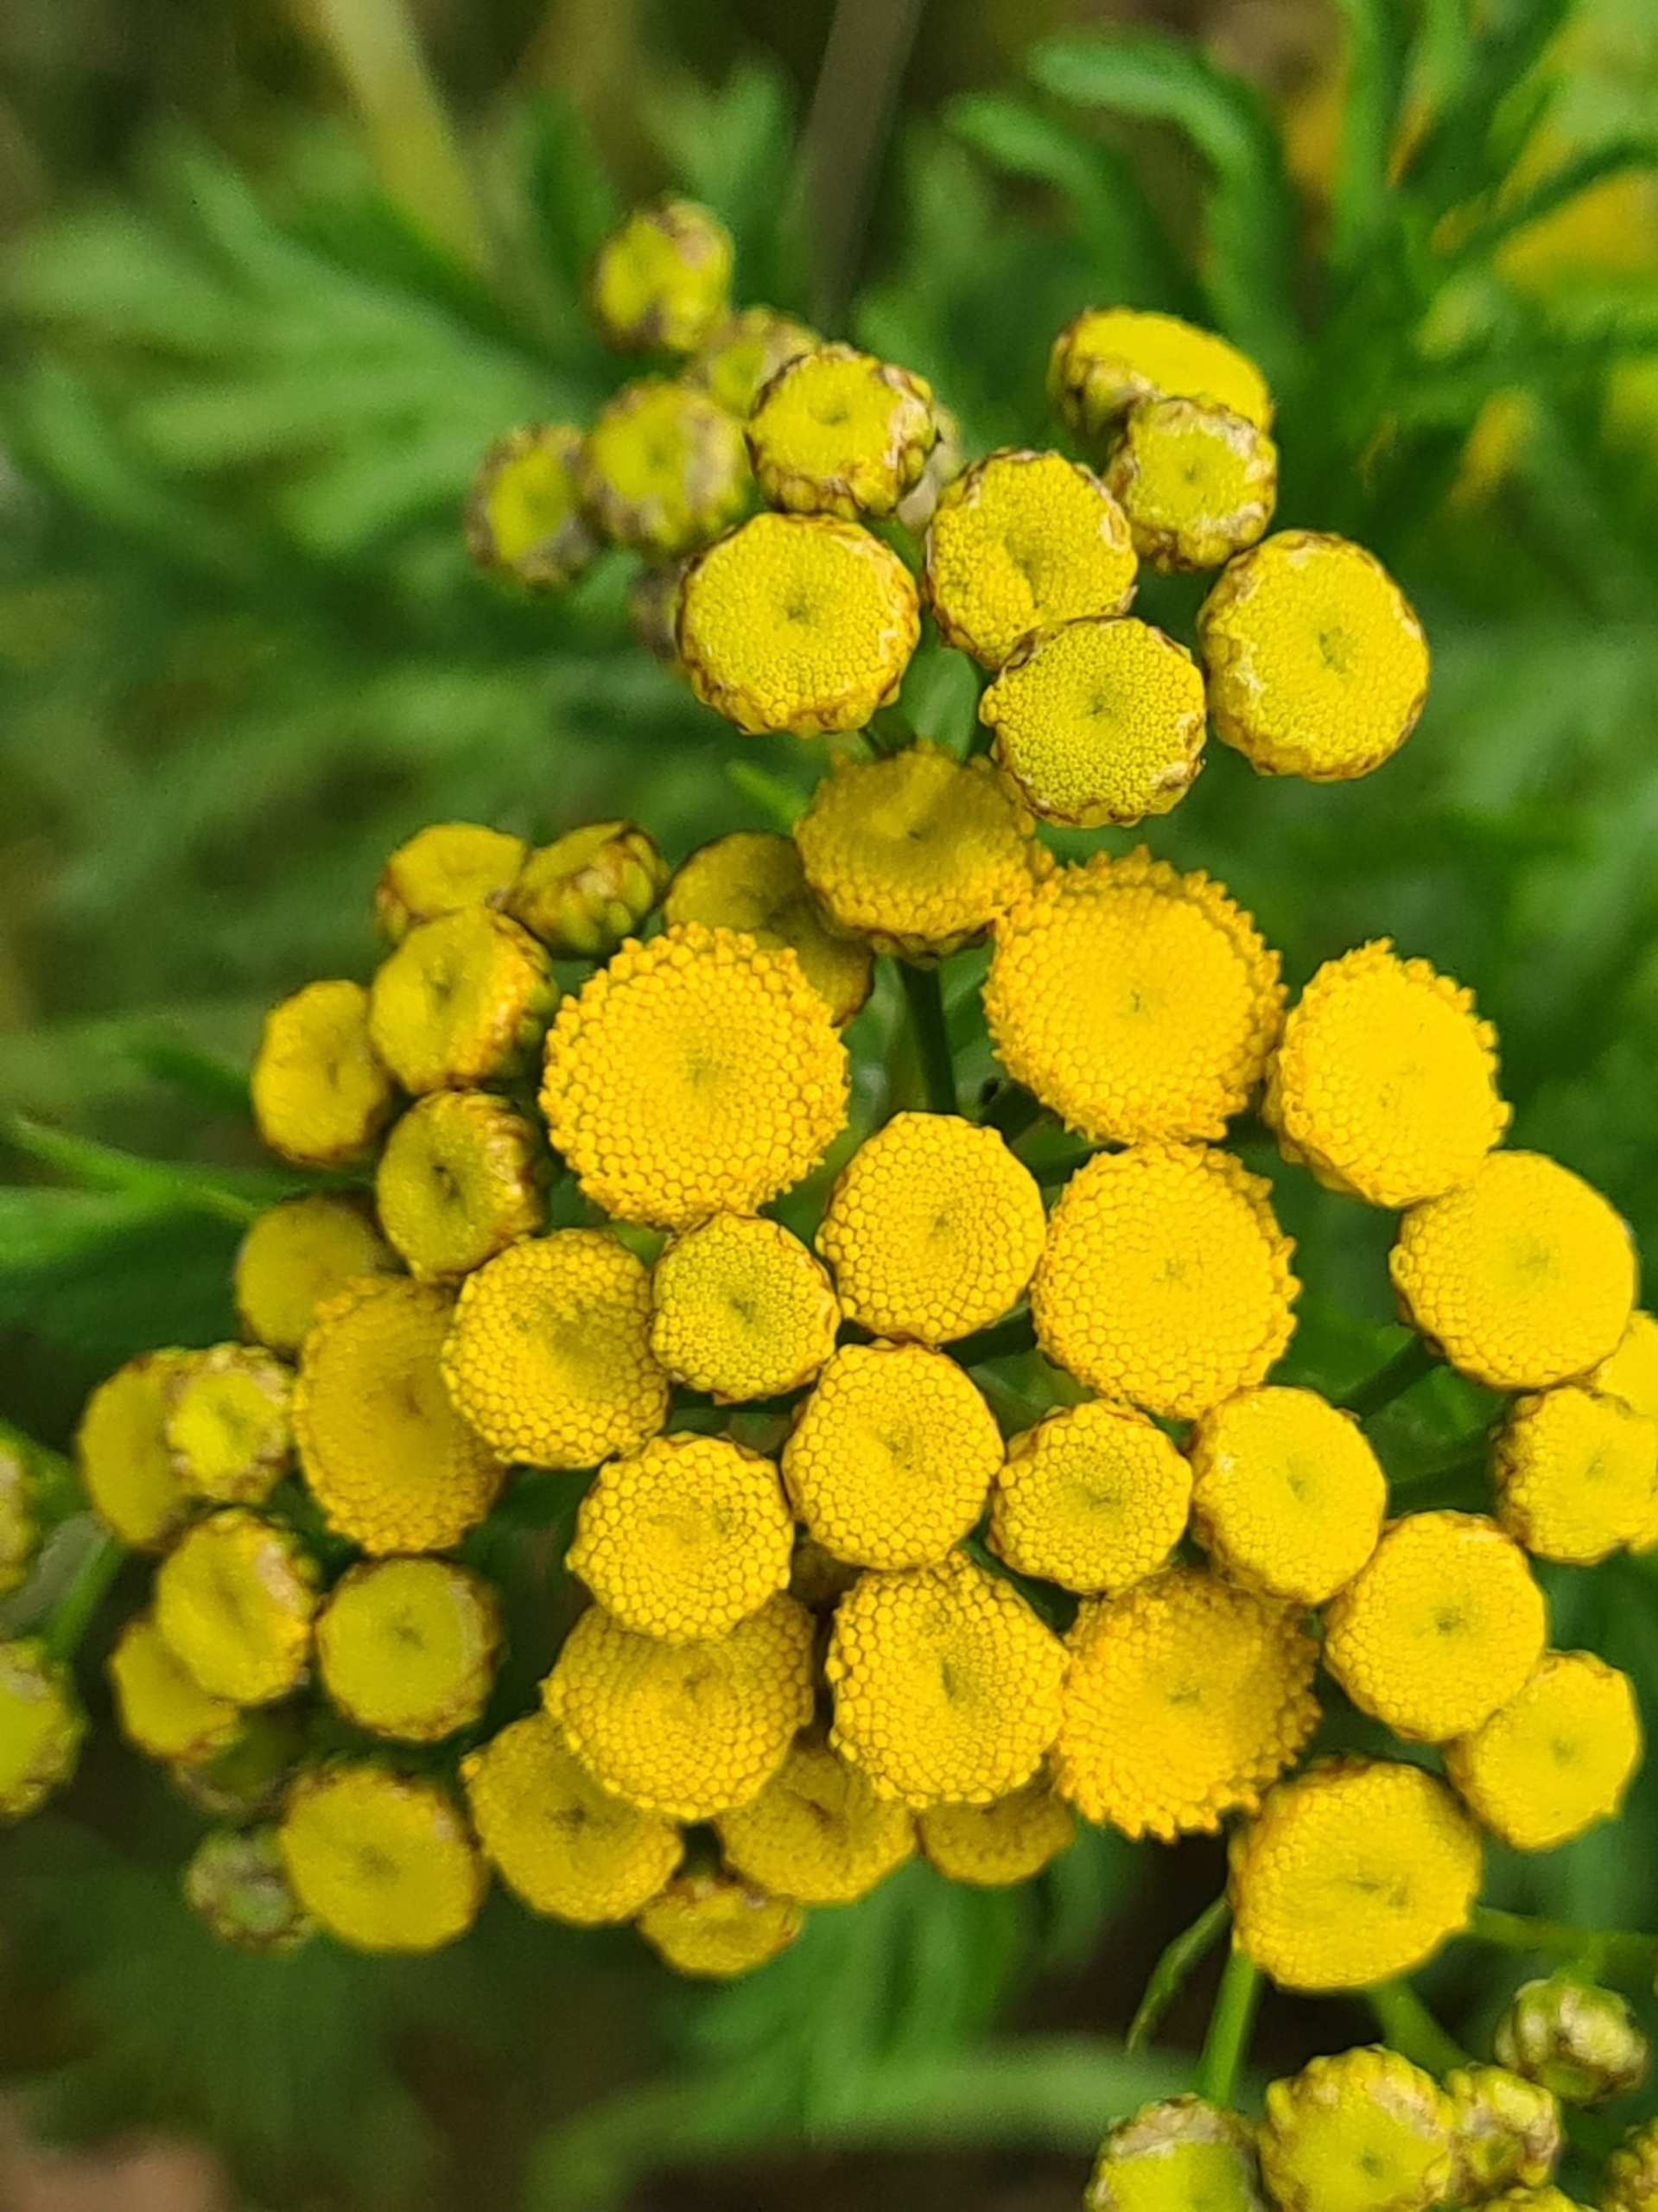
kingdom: Plantae
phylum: Tracheophyta
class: Magnoliopsida
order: Asterales
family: Asteraceae
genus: Tanacetum
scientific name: Tanacetum vulgare
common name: Rejnfan
